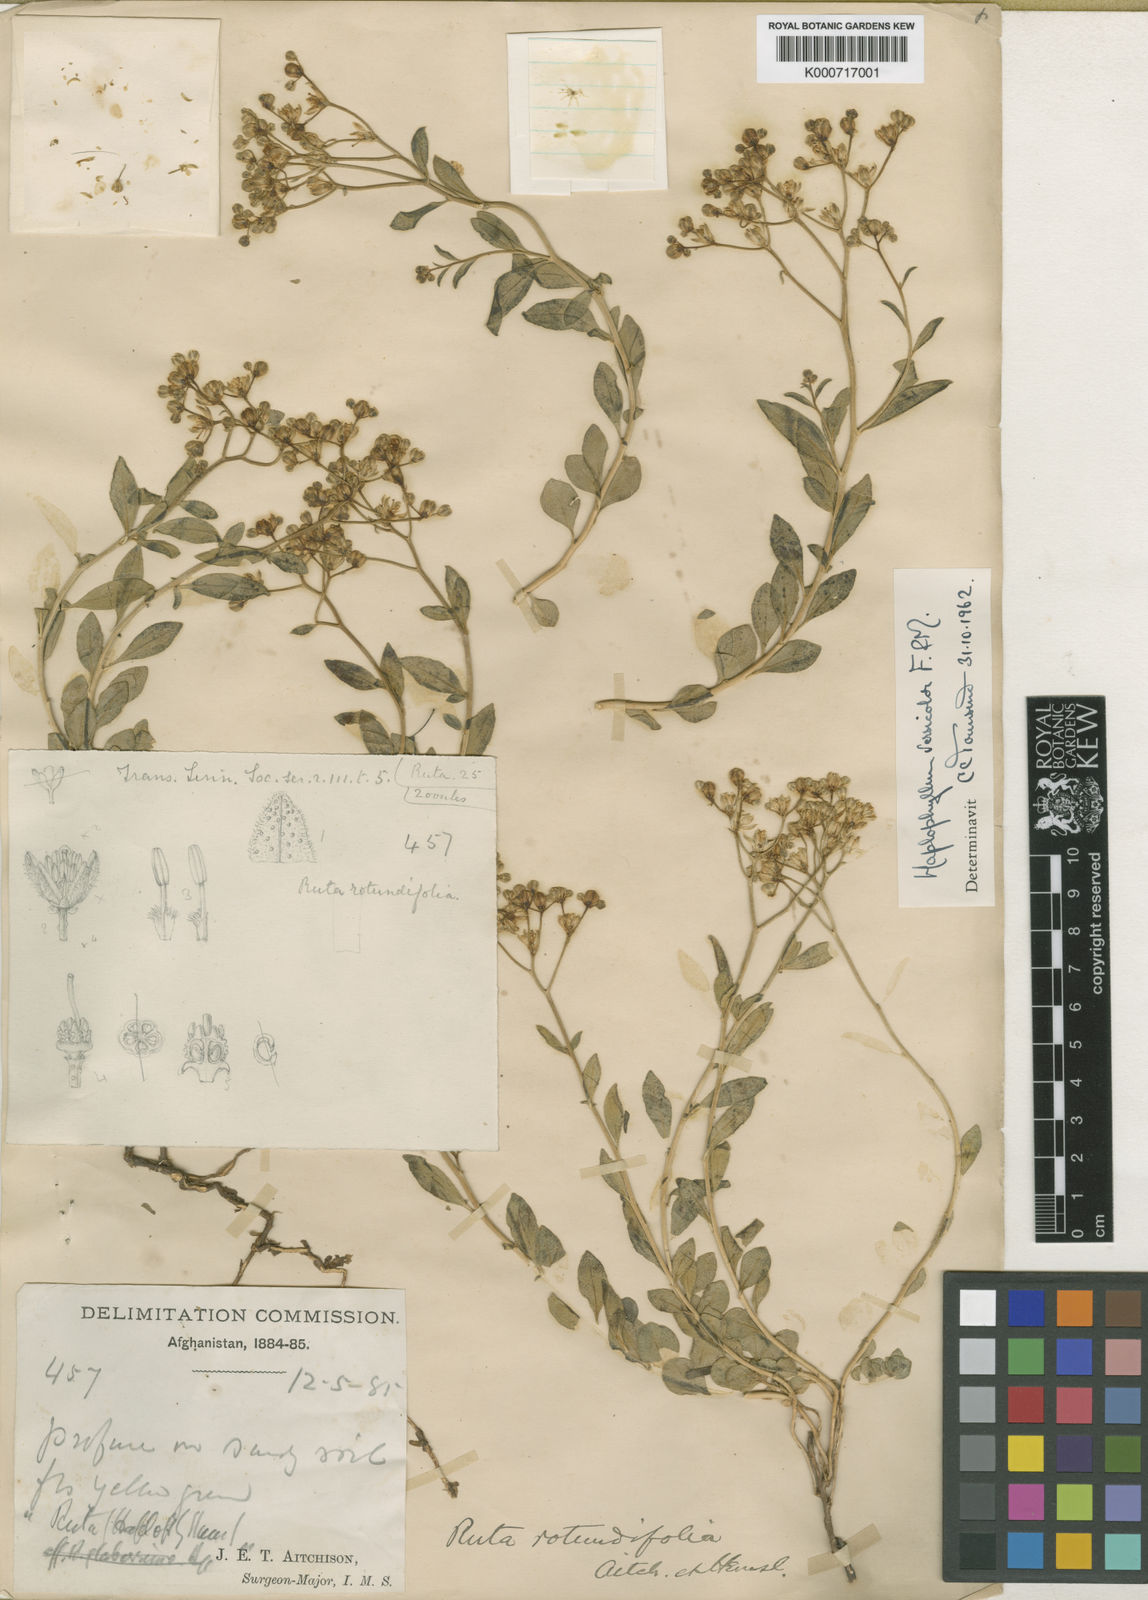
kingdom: Plantae
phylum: Tracheophyta
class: Magnoliopsida
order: Sapindales
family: Rutaceae
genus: Haplophyllum
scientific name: Haplophyllum versicolor
